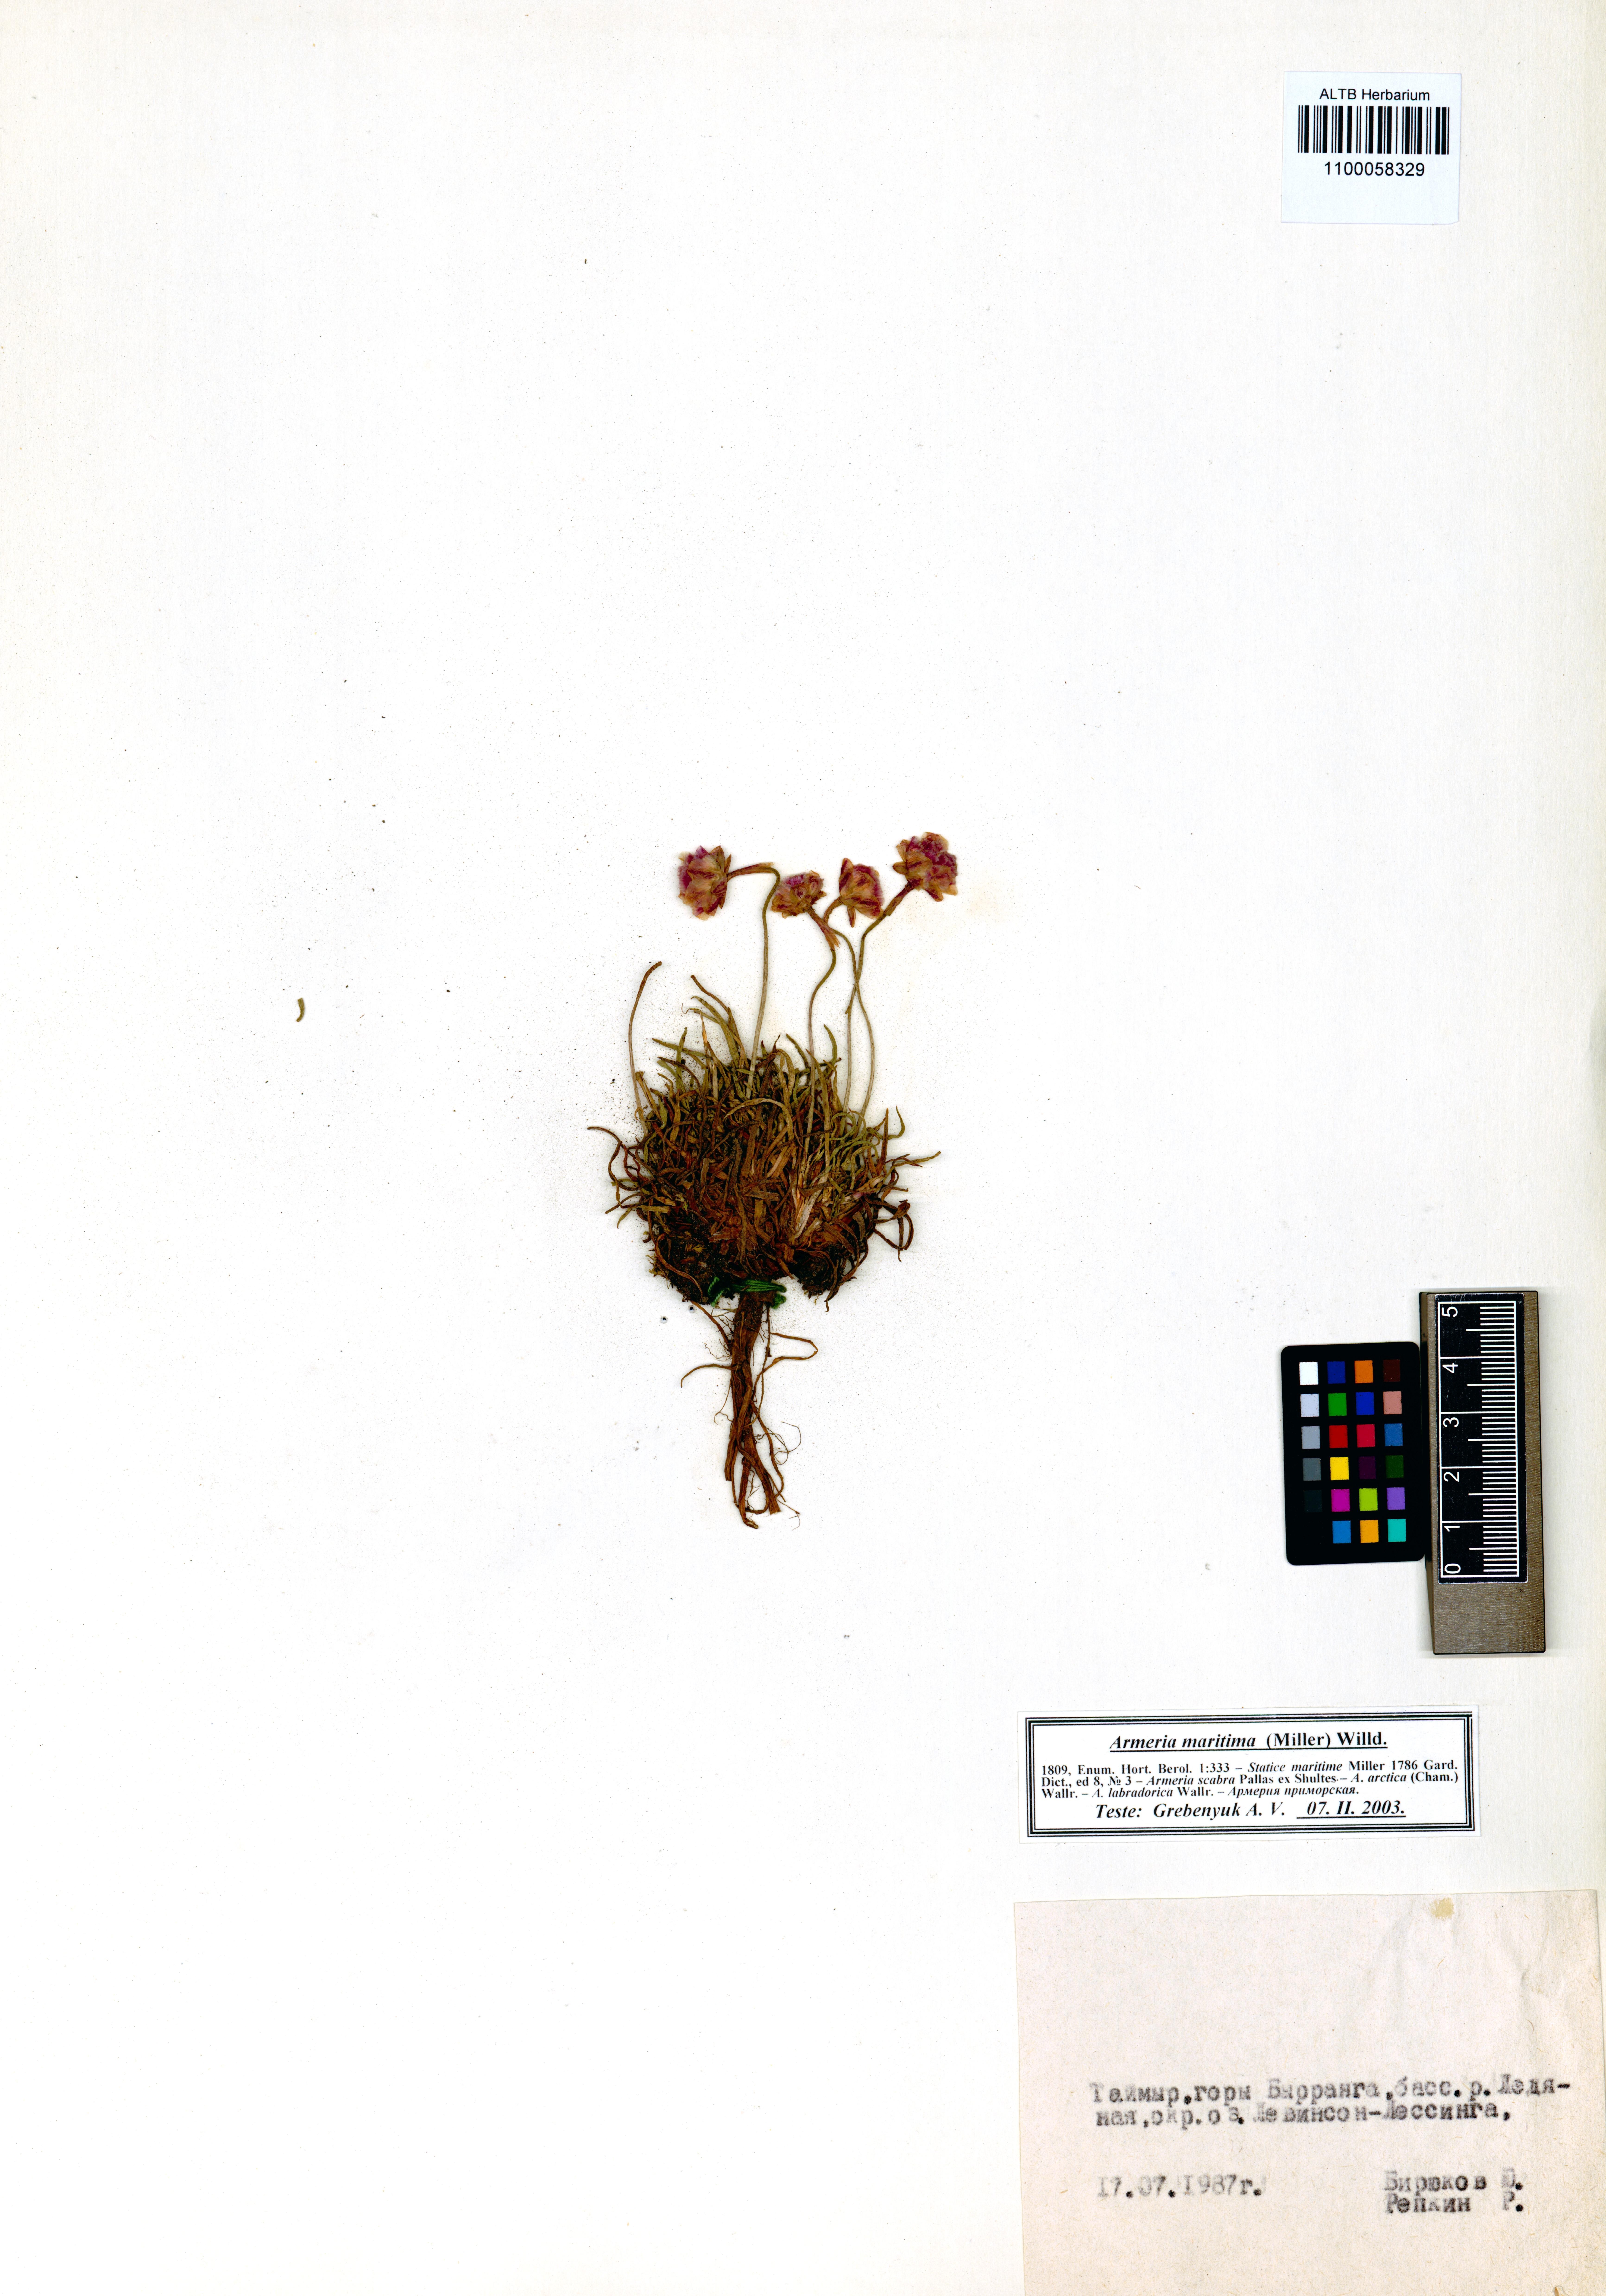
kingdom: Plantae
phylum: Tracheophyta
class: Magnoliopsida
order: Caryophyllales
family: Plumbaginaceae
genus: Armeria
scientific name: Armeria maritima
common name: Thrift
